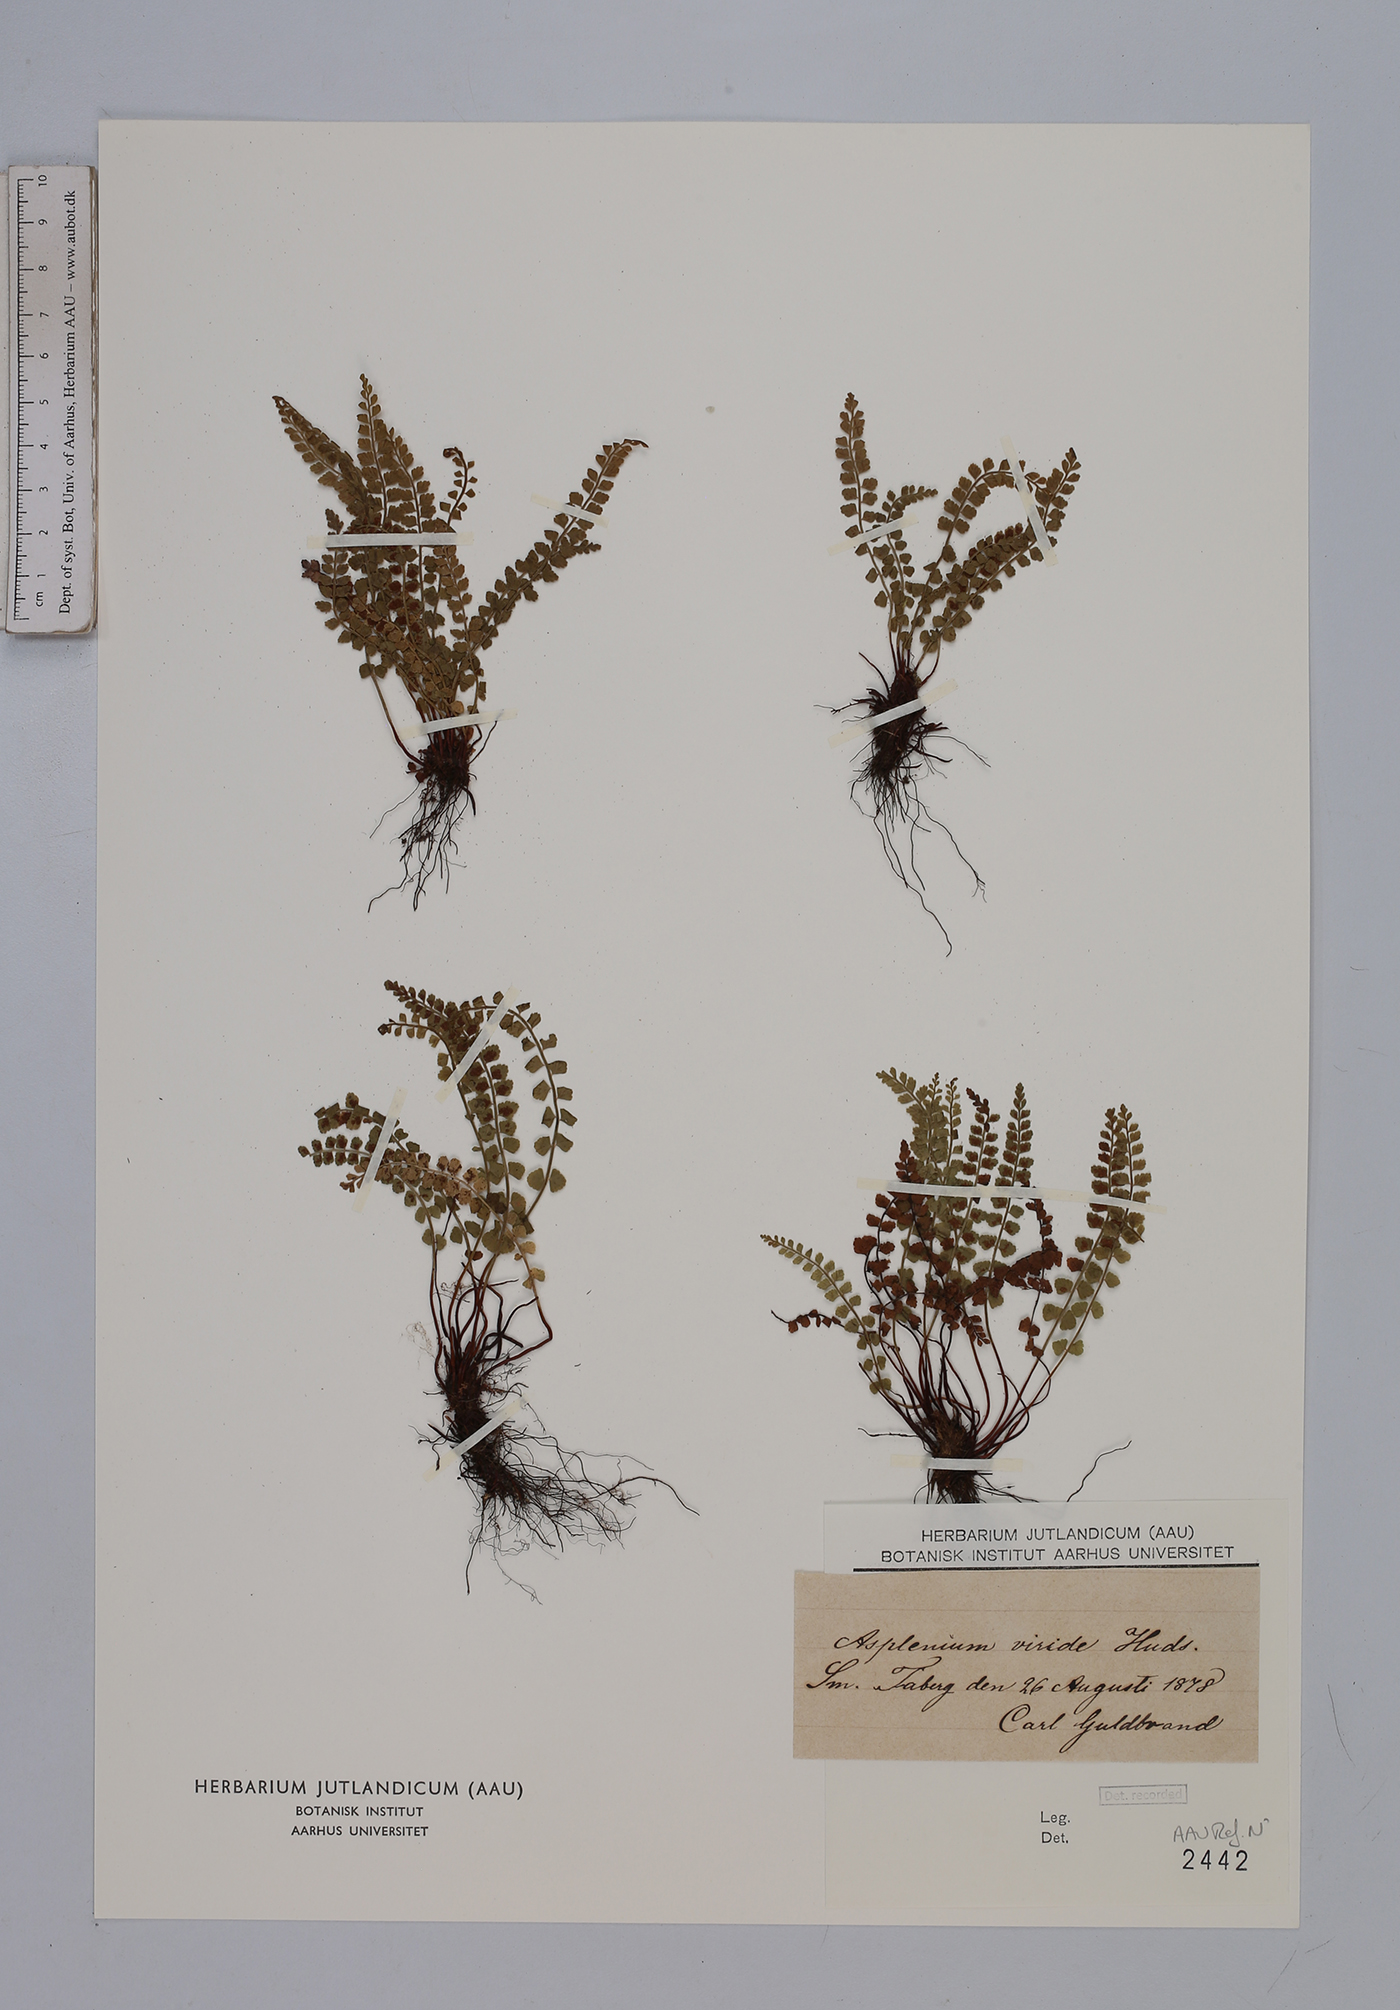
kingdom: Plantae
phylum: Tracheophyta
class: Polypodiopsida
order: Polypodiales
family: Aspleniaceae
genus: Asplenium
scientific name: Asplenium viride
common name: Green spleenwort
